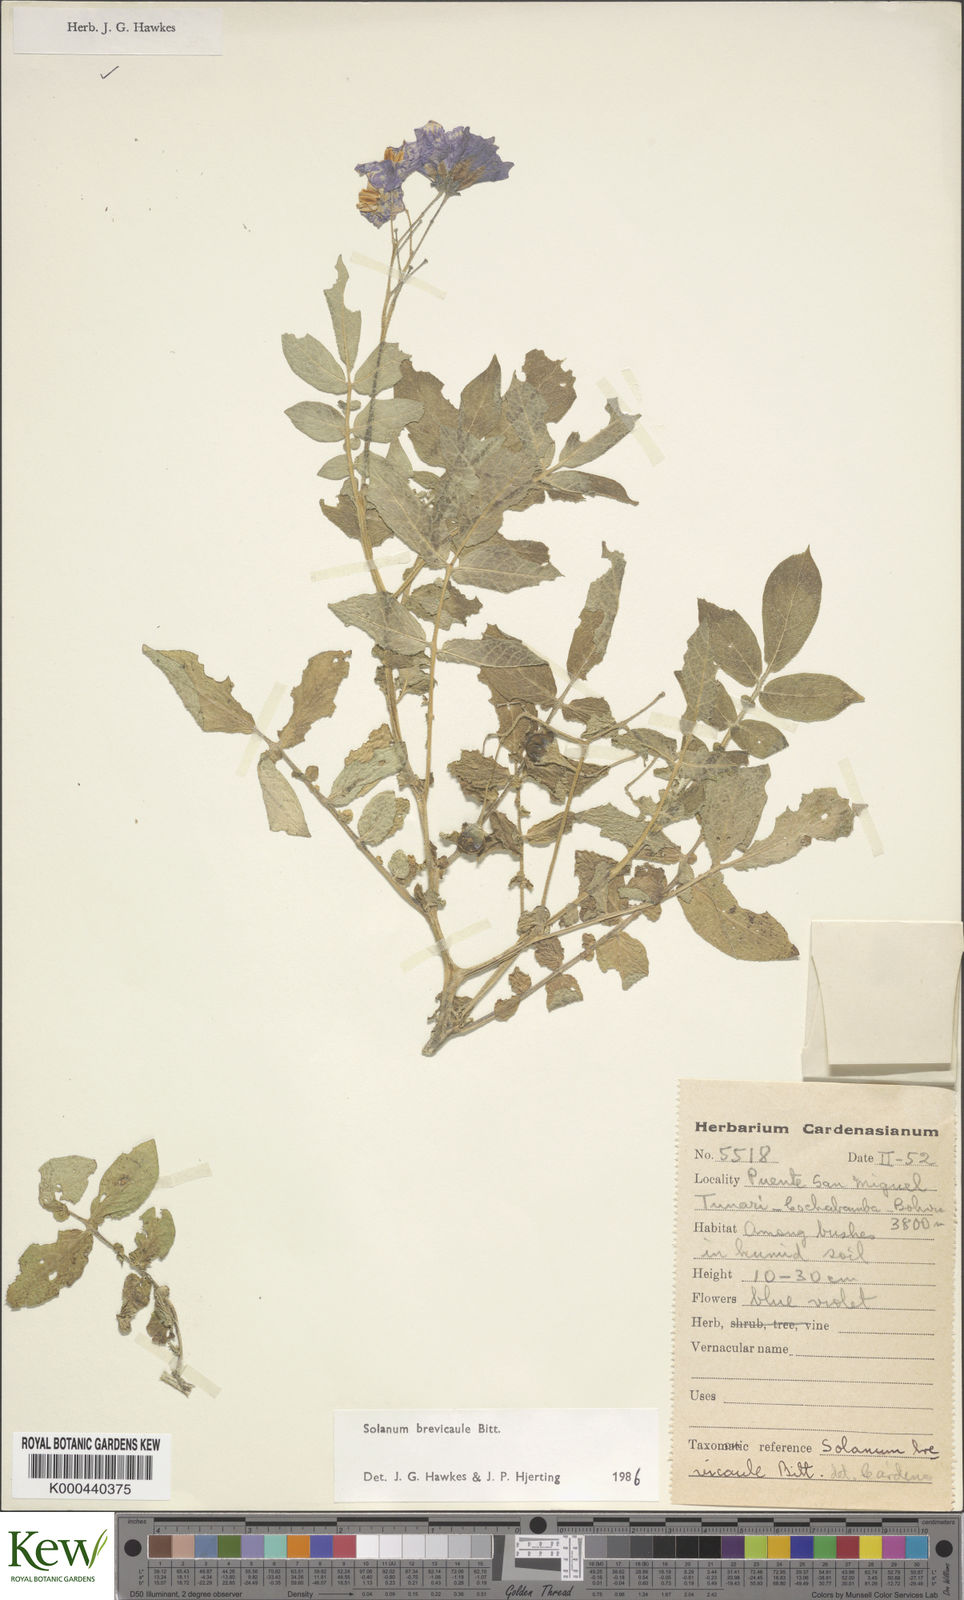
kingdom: Plantae
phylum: Tracheophyta
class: Magnoliopsida
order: Solanales
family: Solanaceae
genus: Solanum
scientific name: Solanum brevicaule
